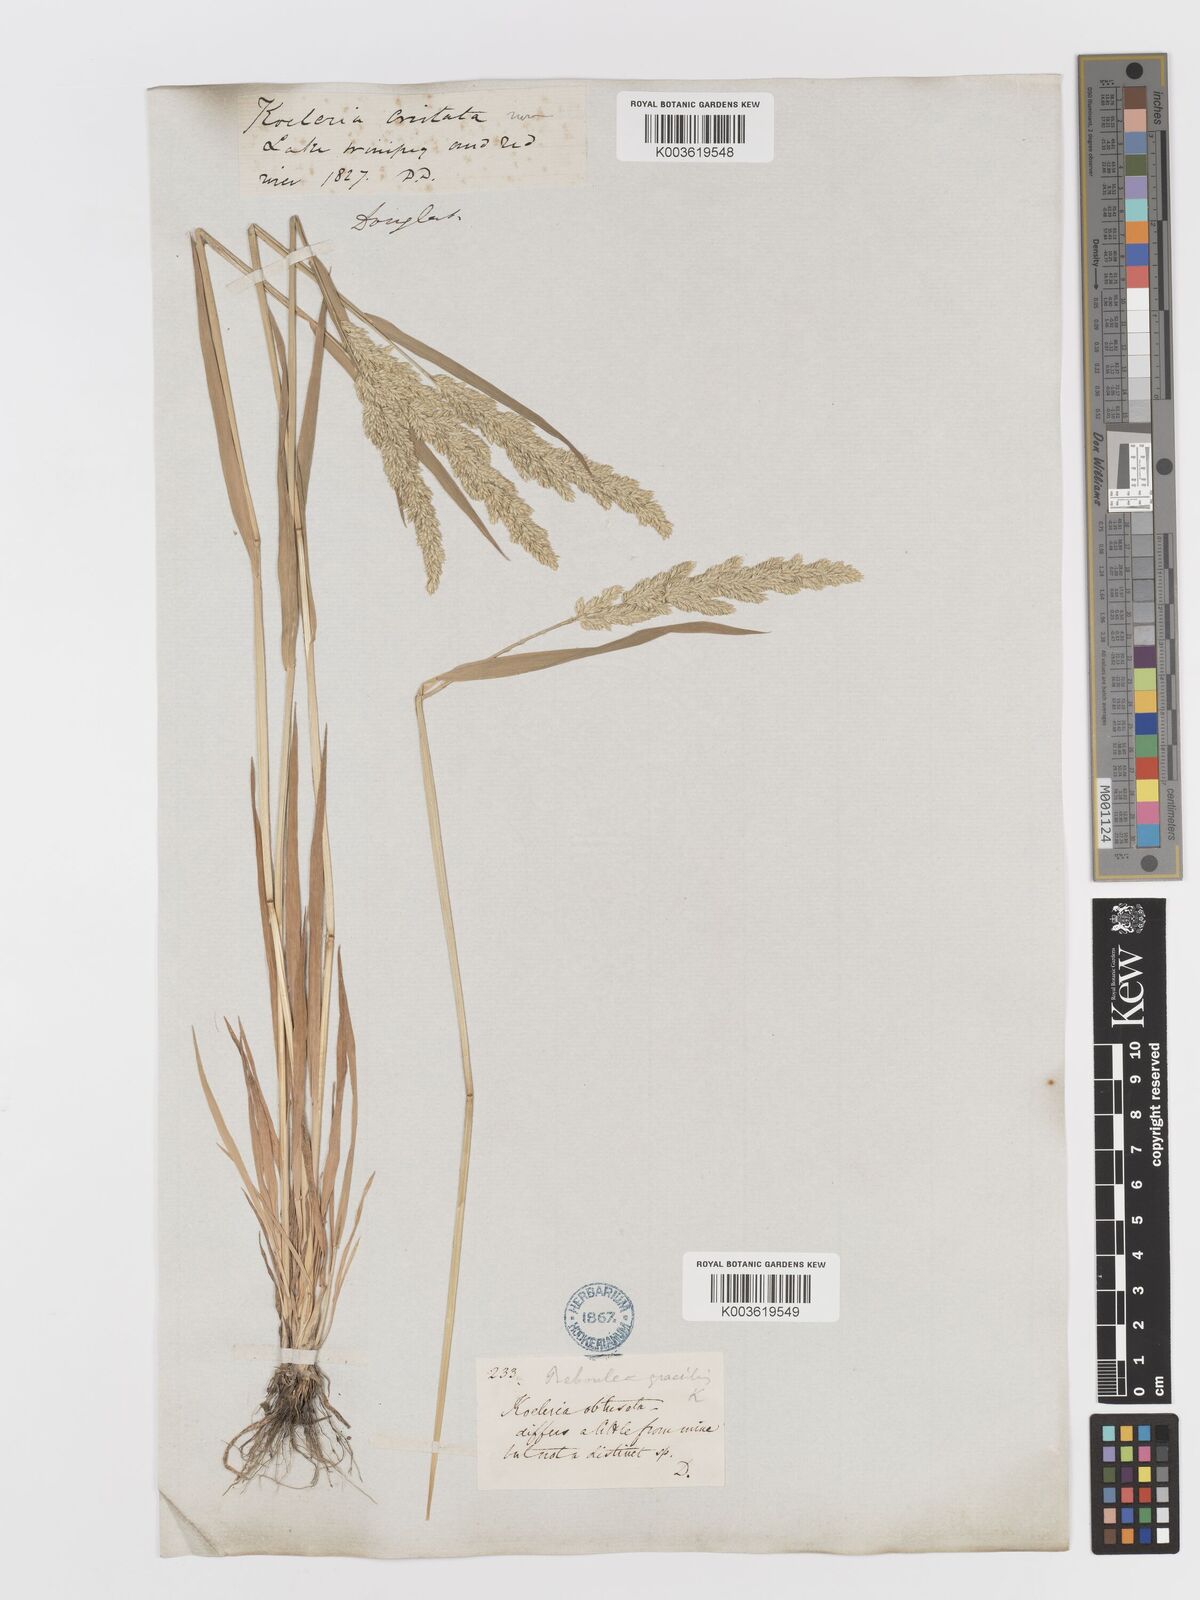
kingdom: Plantae
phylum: Tracheophyta
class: Liliopsida
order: Poales
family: Poaceae
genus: Sphenopholis
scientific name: Sphenopholis obtusata
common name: Prairie grass
